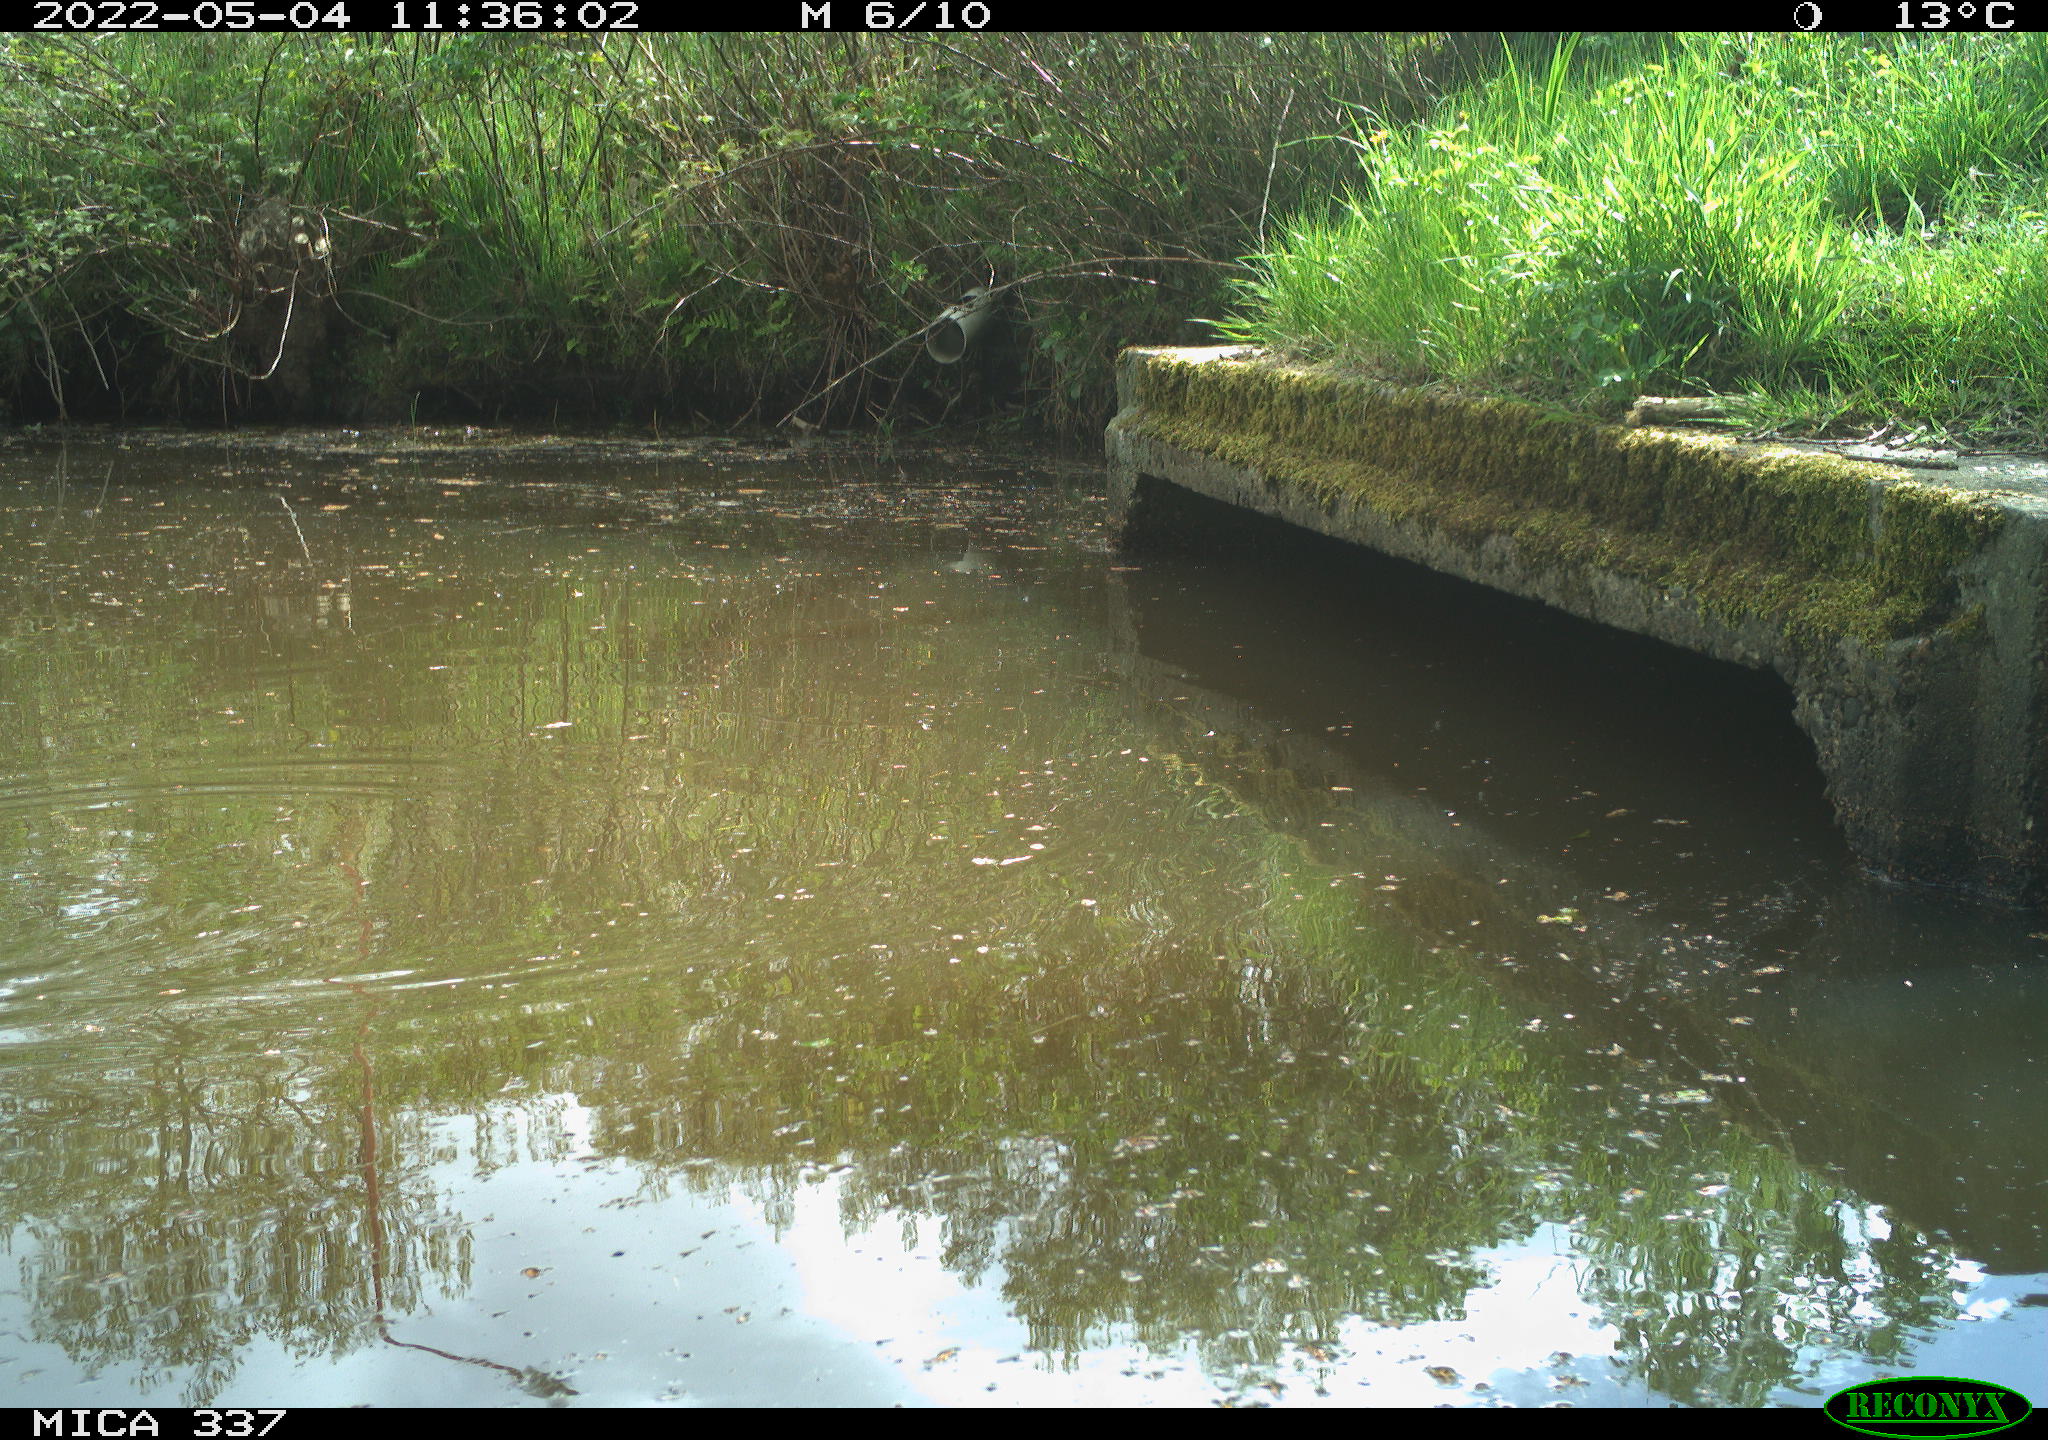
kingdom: Animalia
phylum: Chordata
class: Aves
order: Gruiformes
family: Rallidae
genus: Gallinula
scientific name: Gallinula chloropus
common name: Common moorhen
